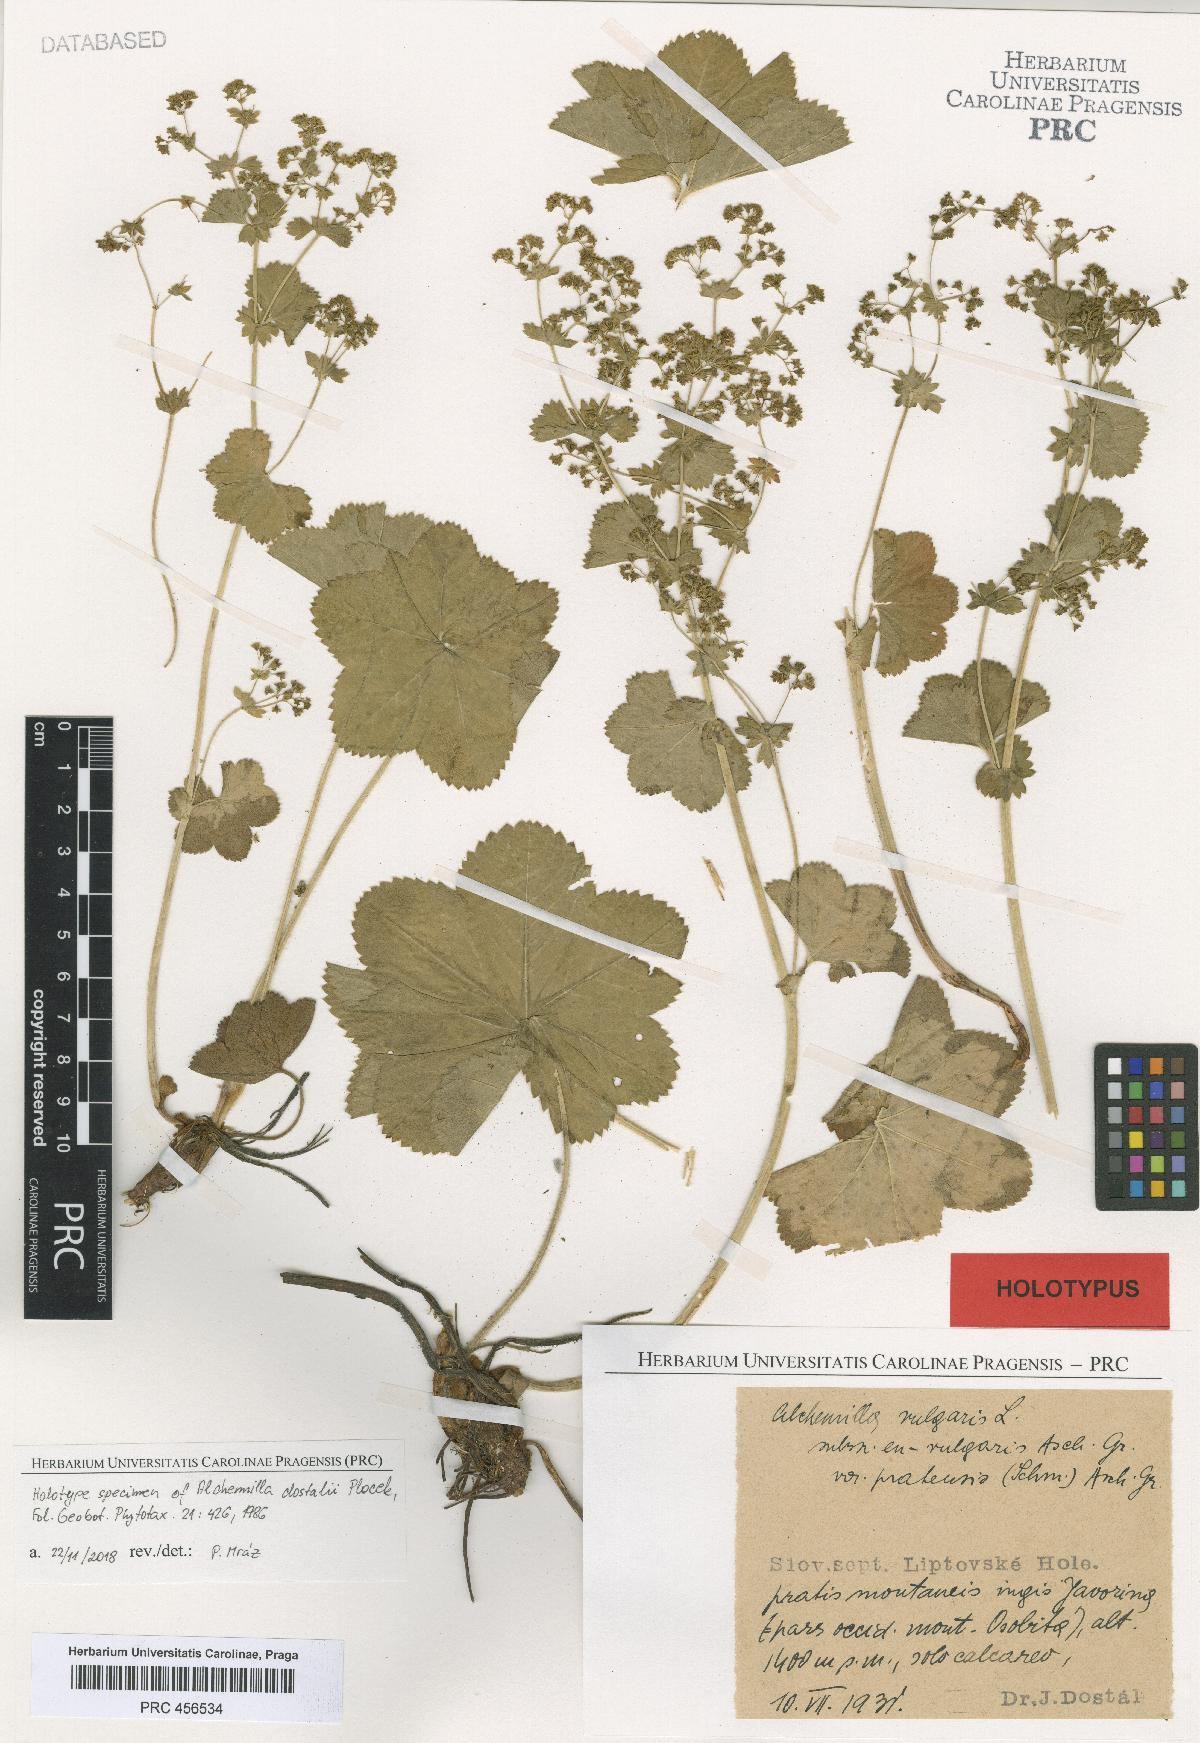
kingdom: Plantae
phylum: Tracheophyta
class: Magnoliopsida
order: Rosales
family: Rosaceae
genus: Alchemilla
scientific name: Alchemilla dostalii
